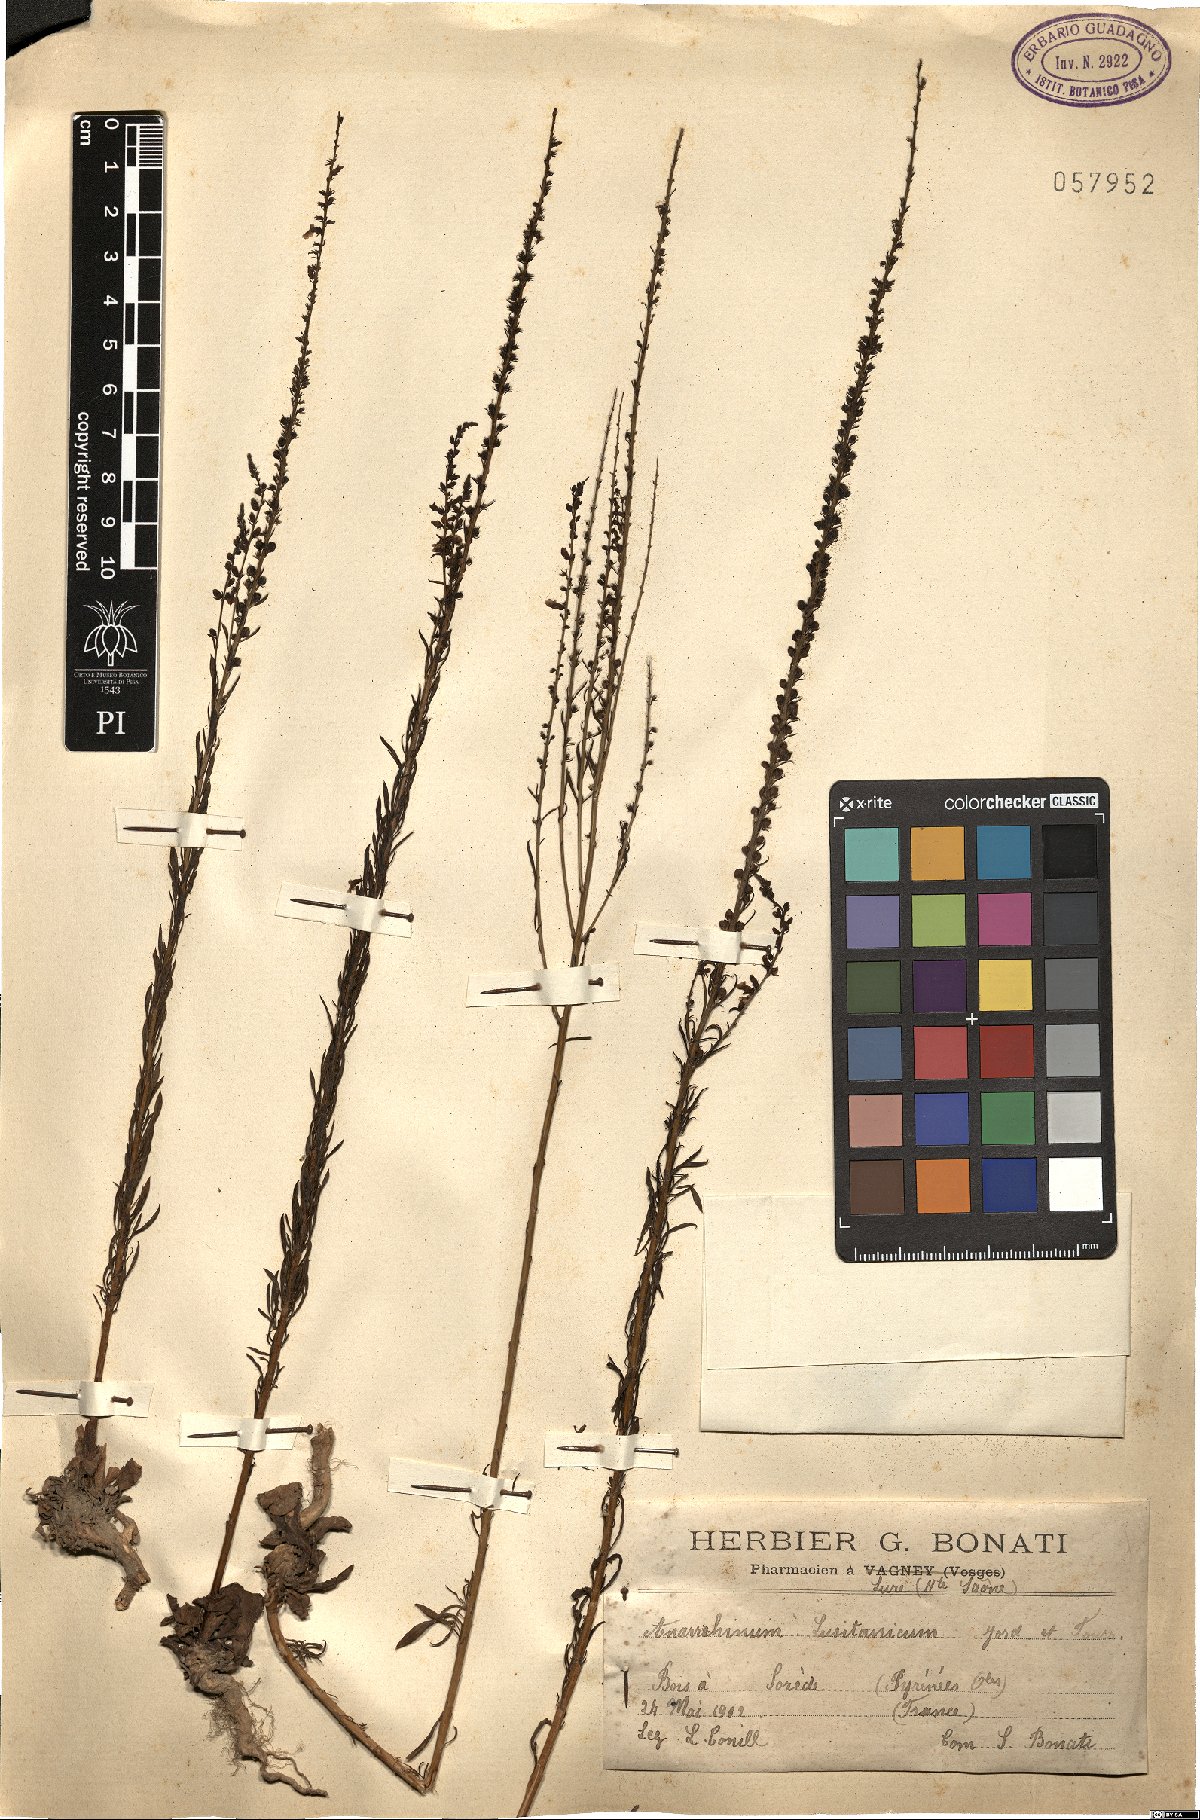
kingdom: Plantae
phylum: Tracheophyta
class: Magnoliopsida
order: Lamiales
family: Plantaginaceae
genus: Anarrhinum
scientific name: Anarrhinum bellidifolium
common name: Daisy-leaved toadflax
